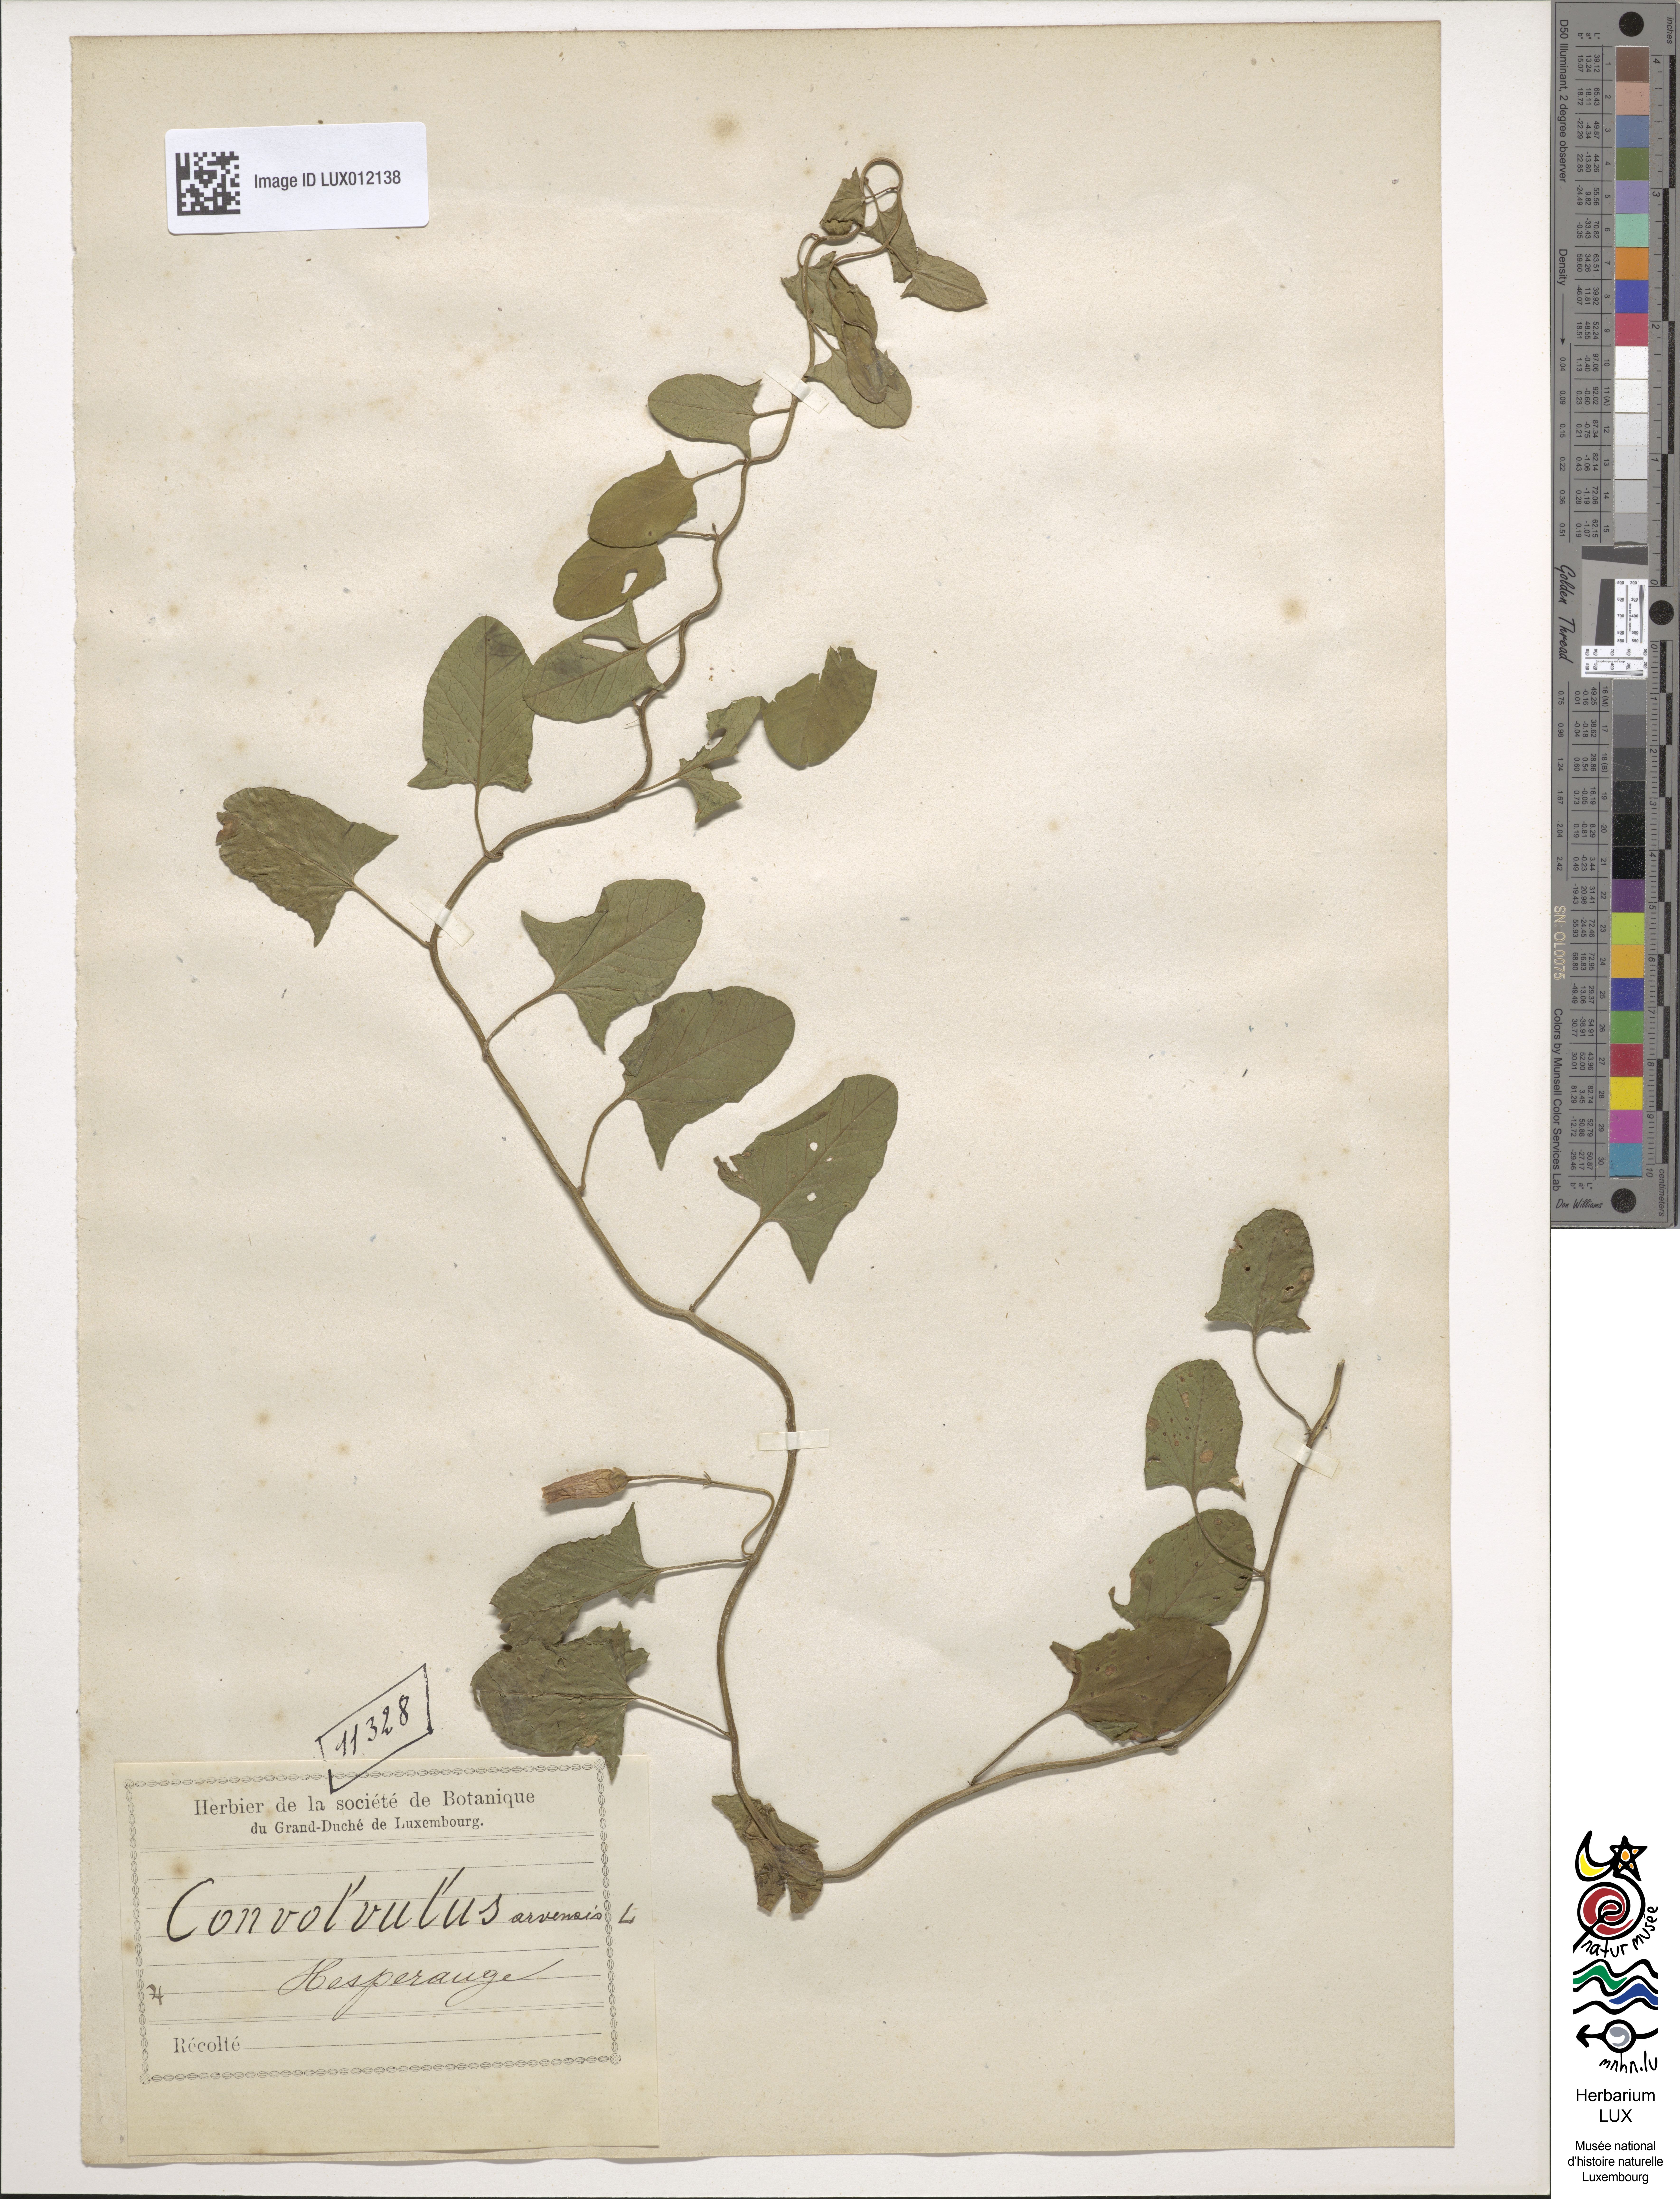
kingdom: Plantae
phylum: Tracheophyta
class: Magnoliopsida
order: Solanales
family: Convolvulaceae
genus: Convolvulus
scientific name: Convolvulus arvensis
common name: Field bindweed
